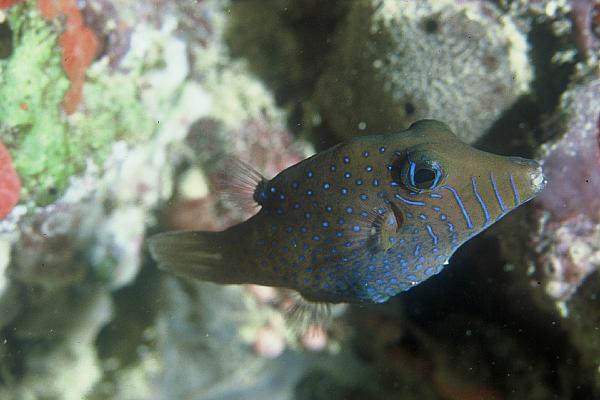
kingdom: Animalia
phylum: Chordata
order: Tetraodontiformes
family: Tetraodontidae
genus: Canthigaster
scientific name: Canthigaster pygmaea
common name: Pygmy toby
